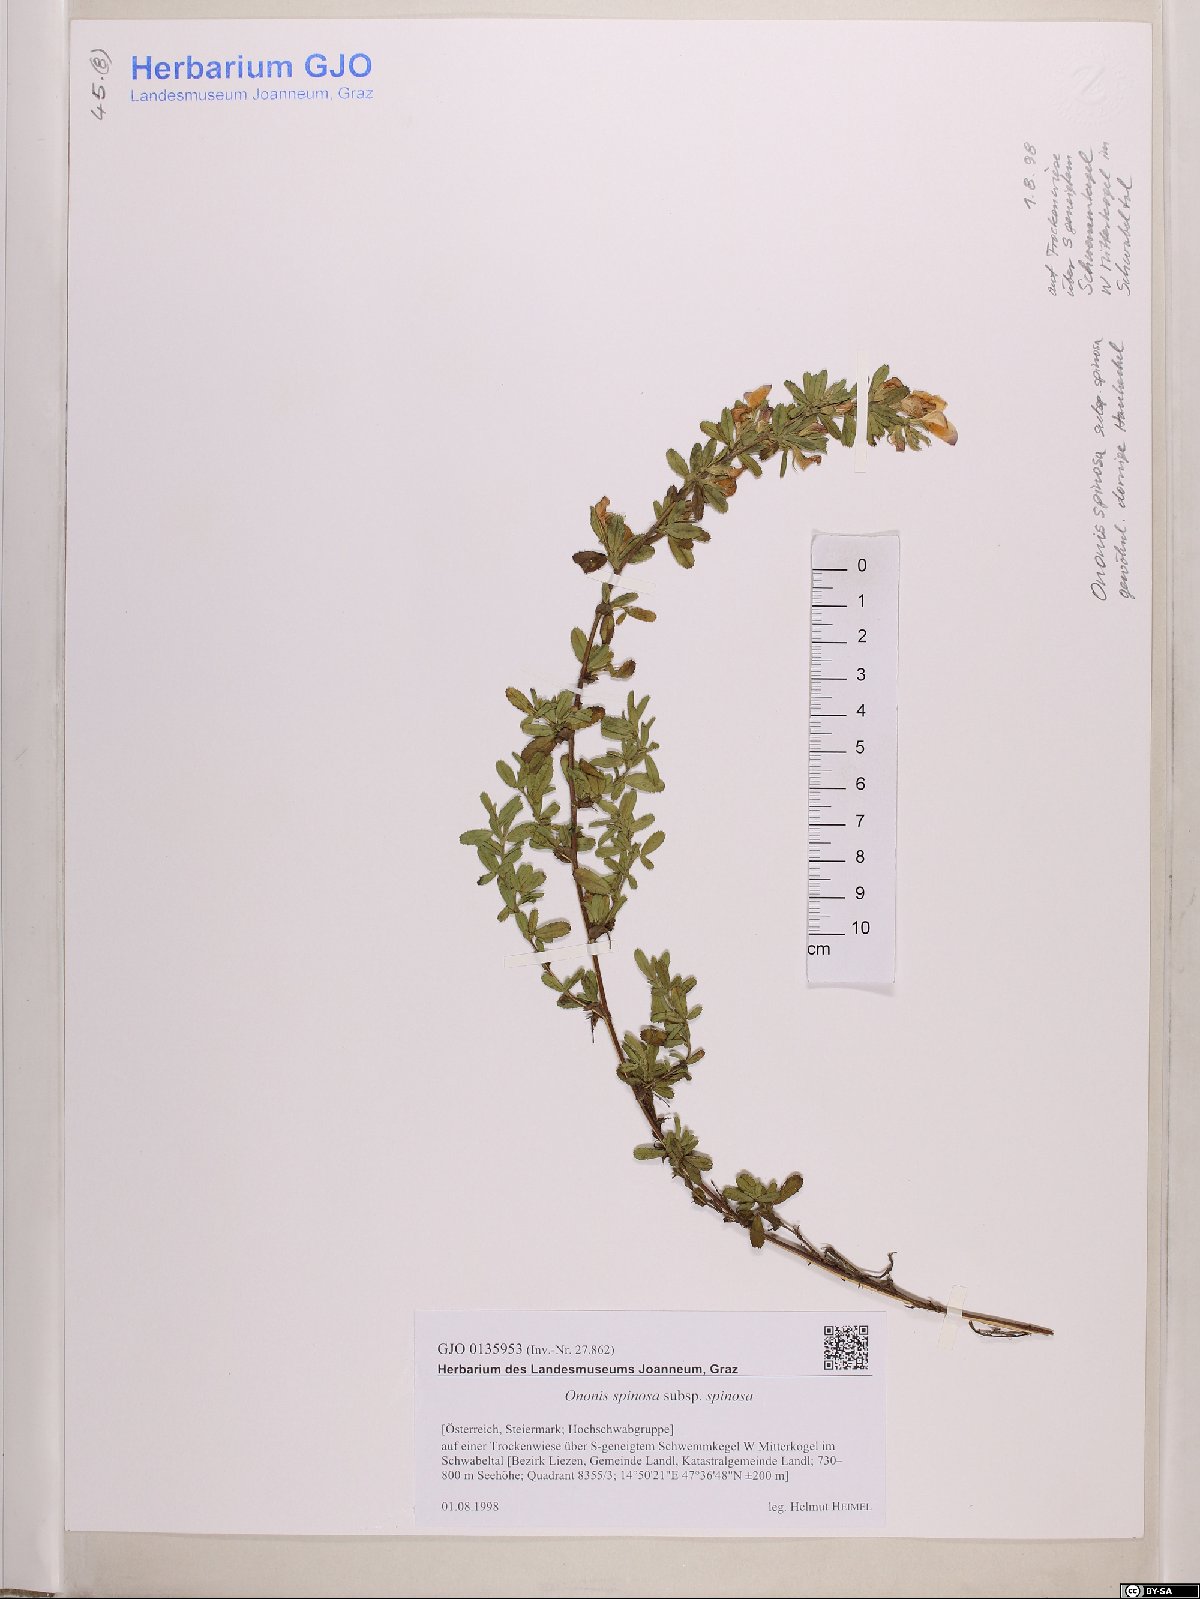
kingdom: Plantae
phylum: Tracheophyta
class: Magnoliopsida
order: Fabales
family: Fabaceae
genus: Ononis
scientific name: Ononis spinosa
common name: Spiny restharrow
